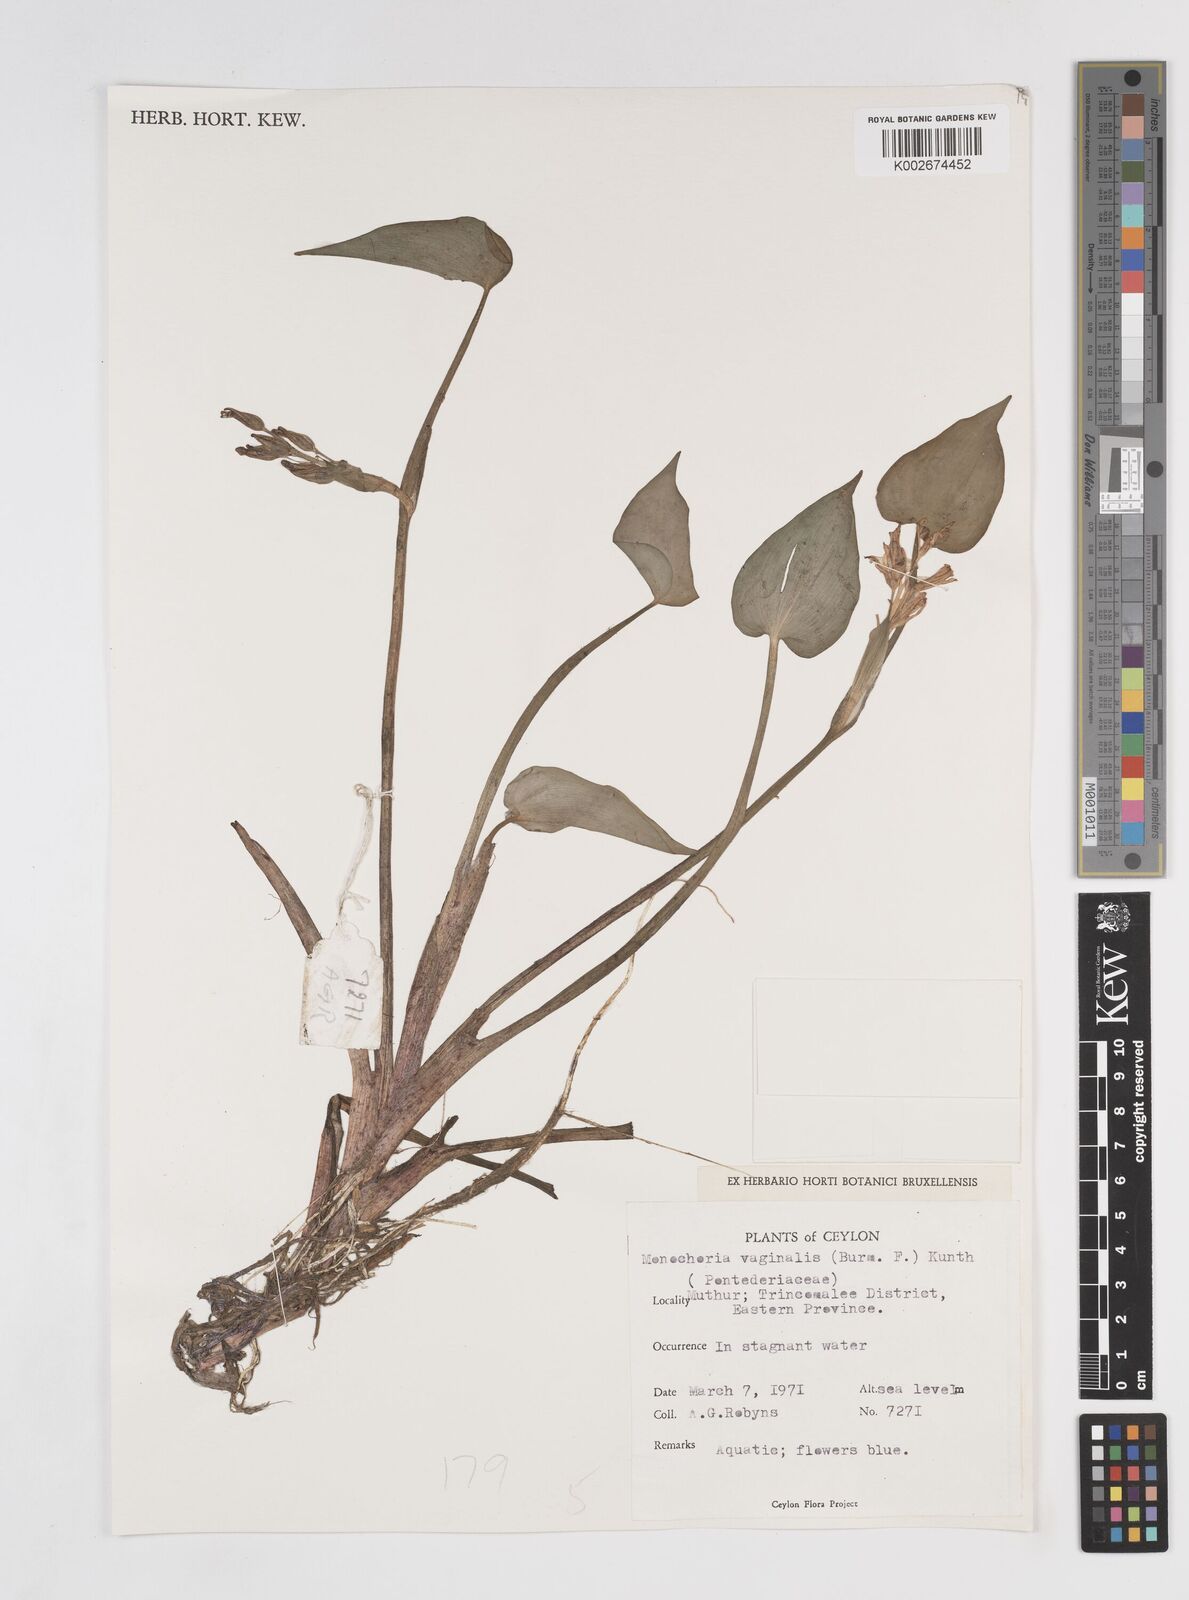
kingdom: Plantae
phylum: Tracheophyta
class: Liliopsida
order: Commelinales
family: Pontederiaceae
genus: Pontederia
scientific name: Pontederia vaginalis
